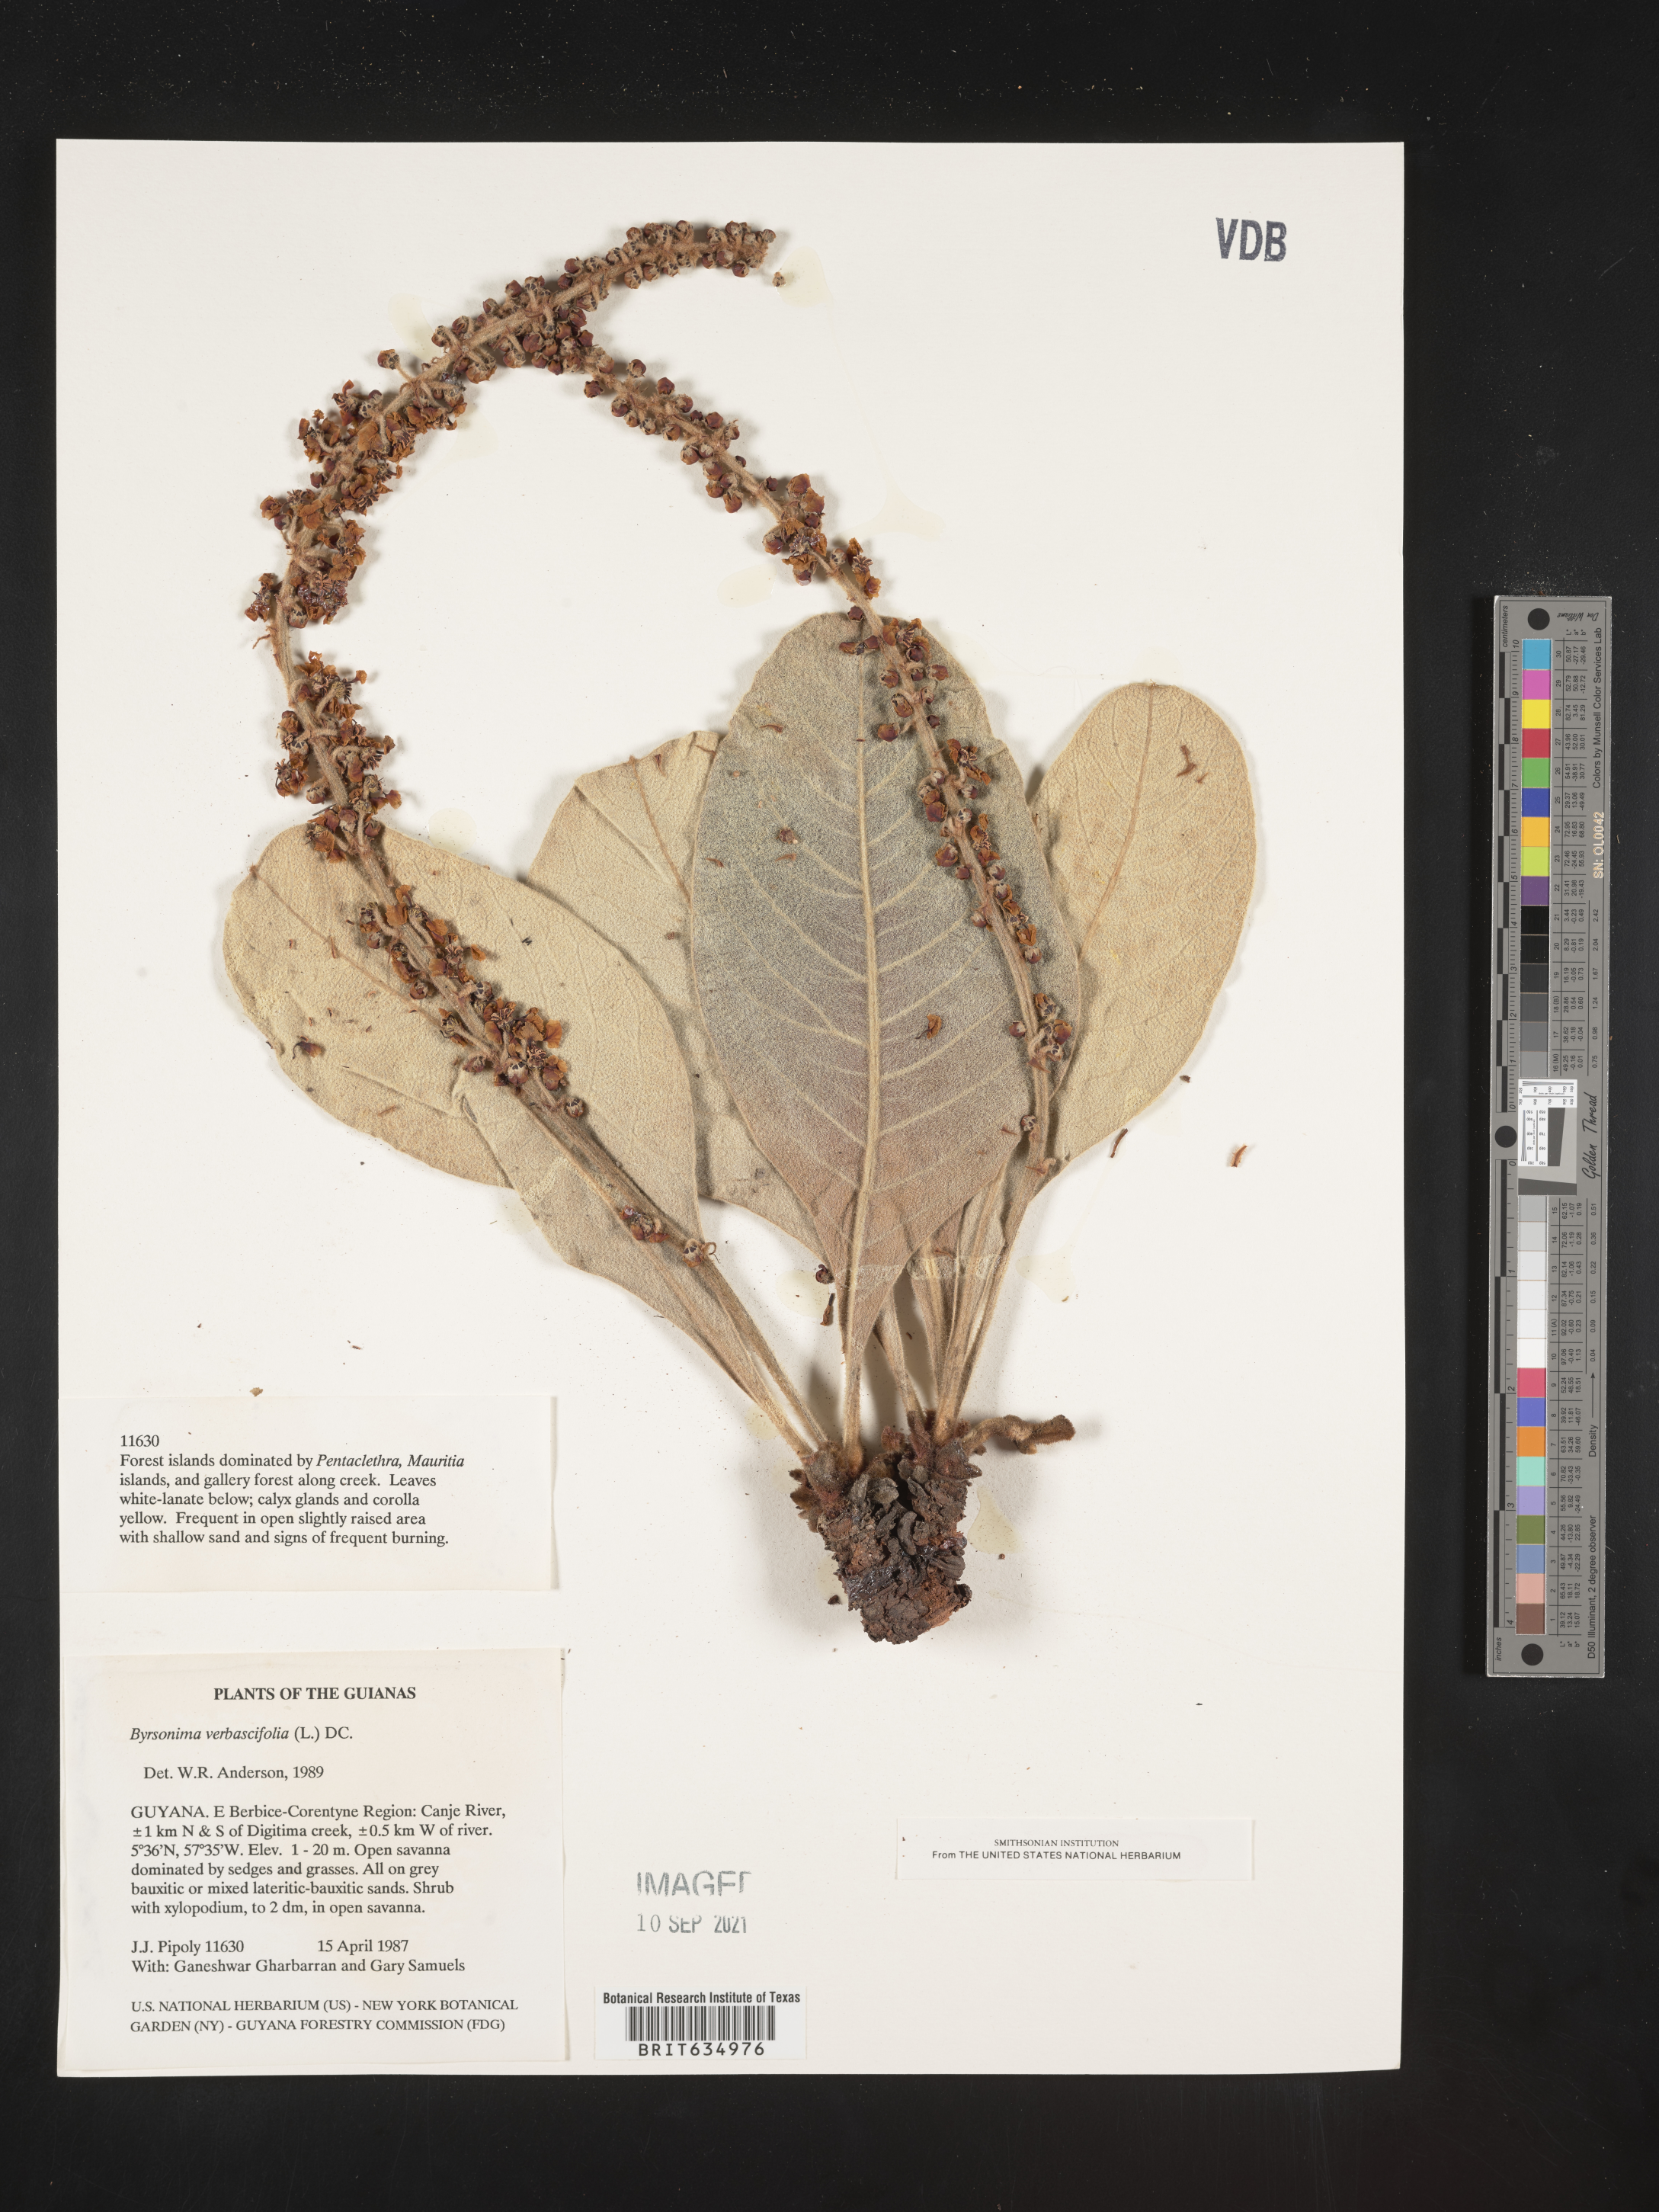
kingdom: Plantae
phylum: Tracheophyta
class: Magnoliopsida
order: Malpighiales
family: Malpighiaceae
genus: Byrsonima
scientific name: Byrsonima
